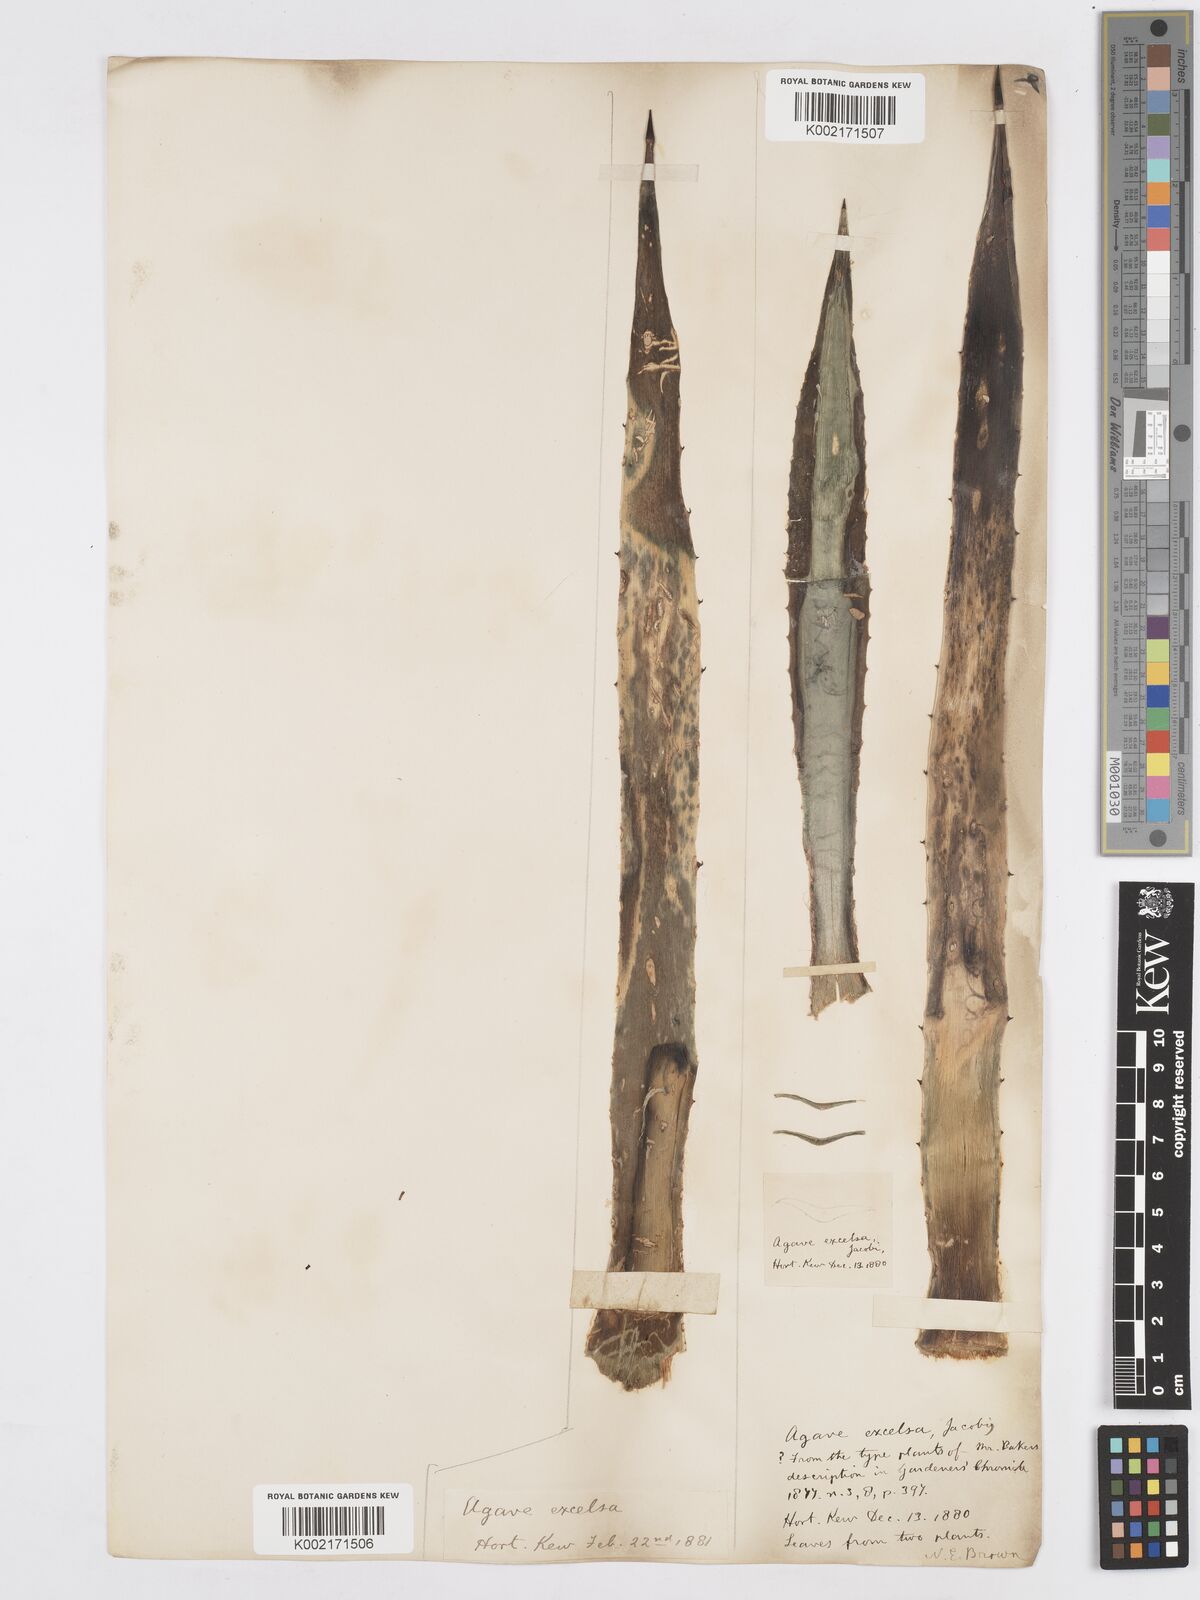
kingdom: Plantae
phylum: Tracheophyta
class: Liliopsida
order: Asparagales
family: Asparagaceae
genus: Agave
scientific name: Agave angustifolia
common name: Mescal agave
